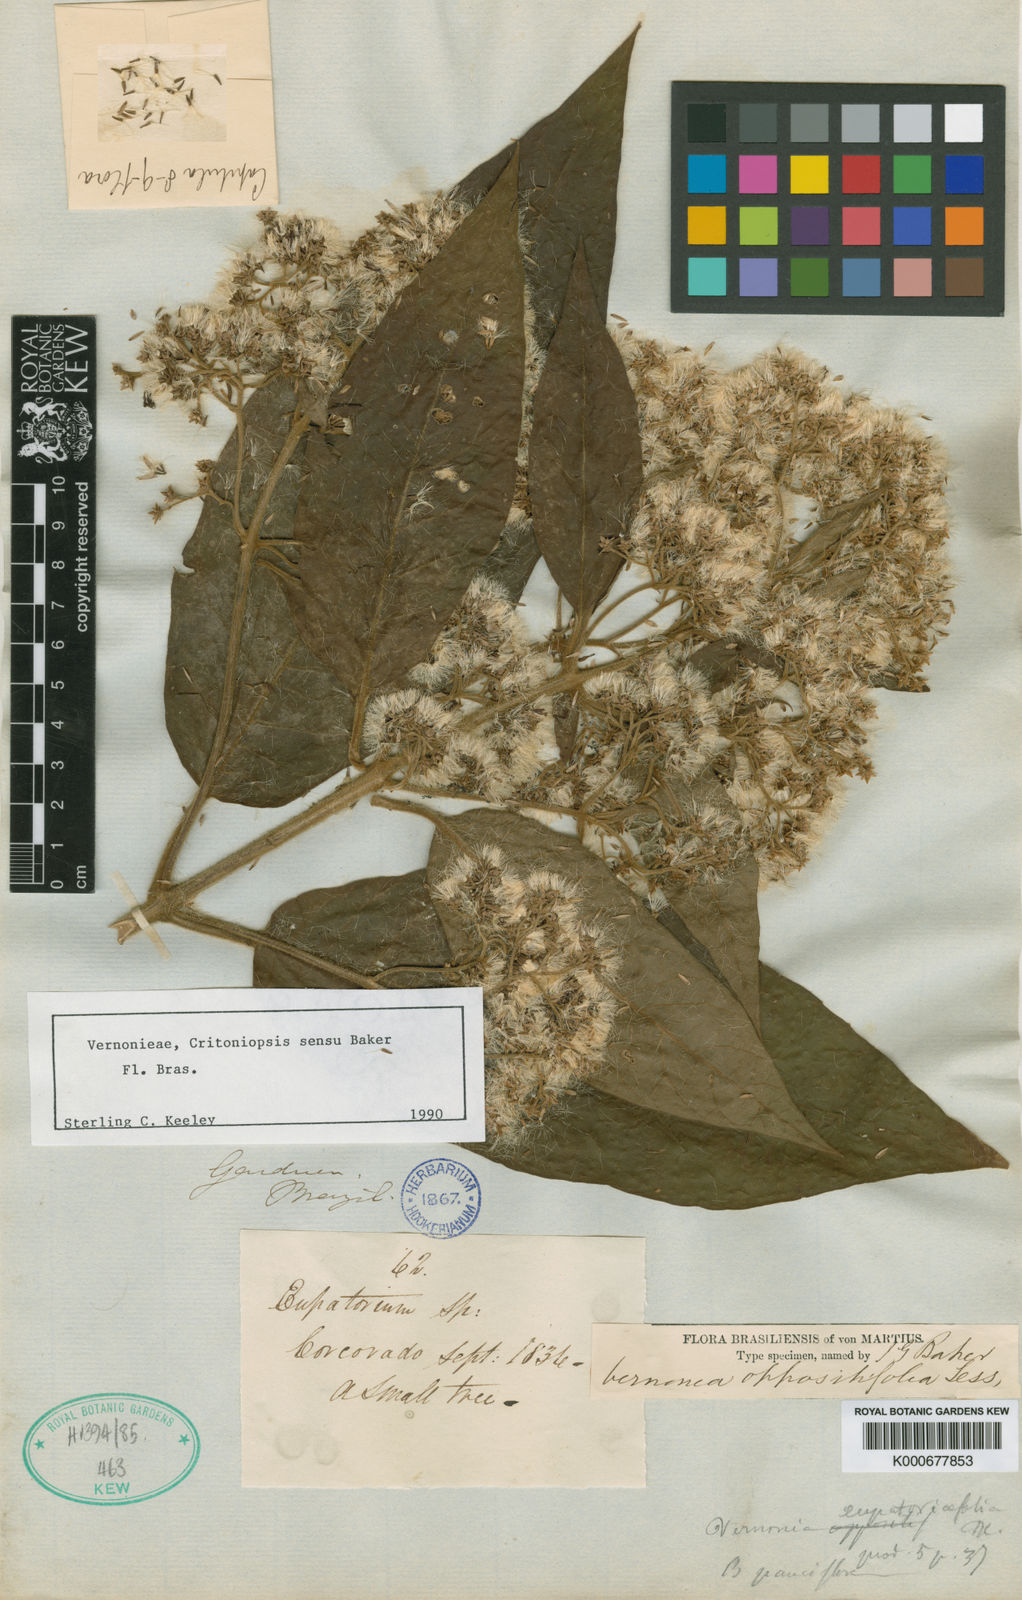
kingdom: Plantae
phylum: Tracheophyta
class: Magnoliopsida
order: Asterales
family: Asteraceae
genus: Critoniopsis
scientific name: Critoniopsis stellata
